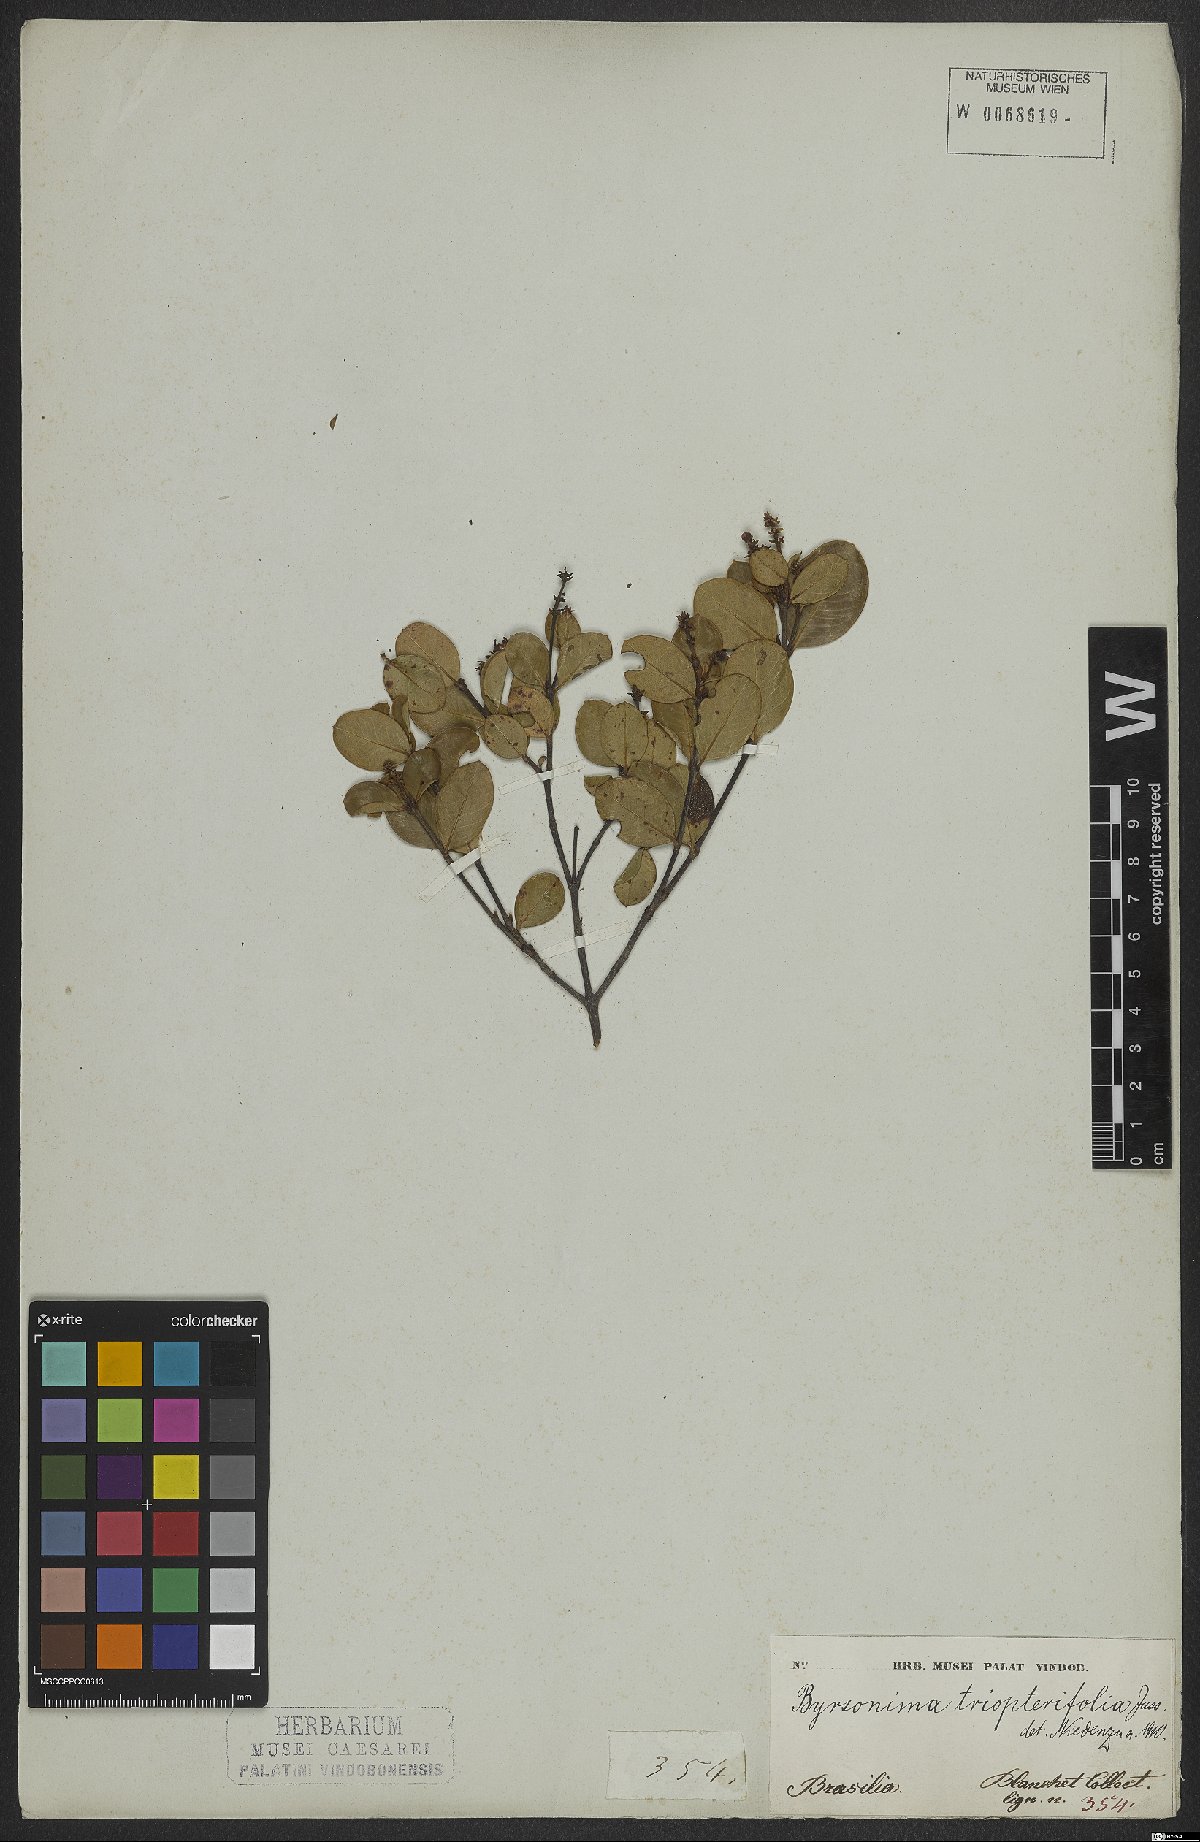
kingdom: Plantae
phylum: Tracheophyta
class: Magnoliopsida
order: Malpighiales
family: Malpighiaceae
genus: Byrsonima
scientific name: Byrsonima triopterifolia
